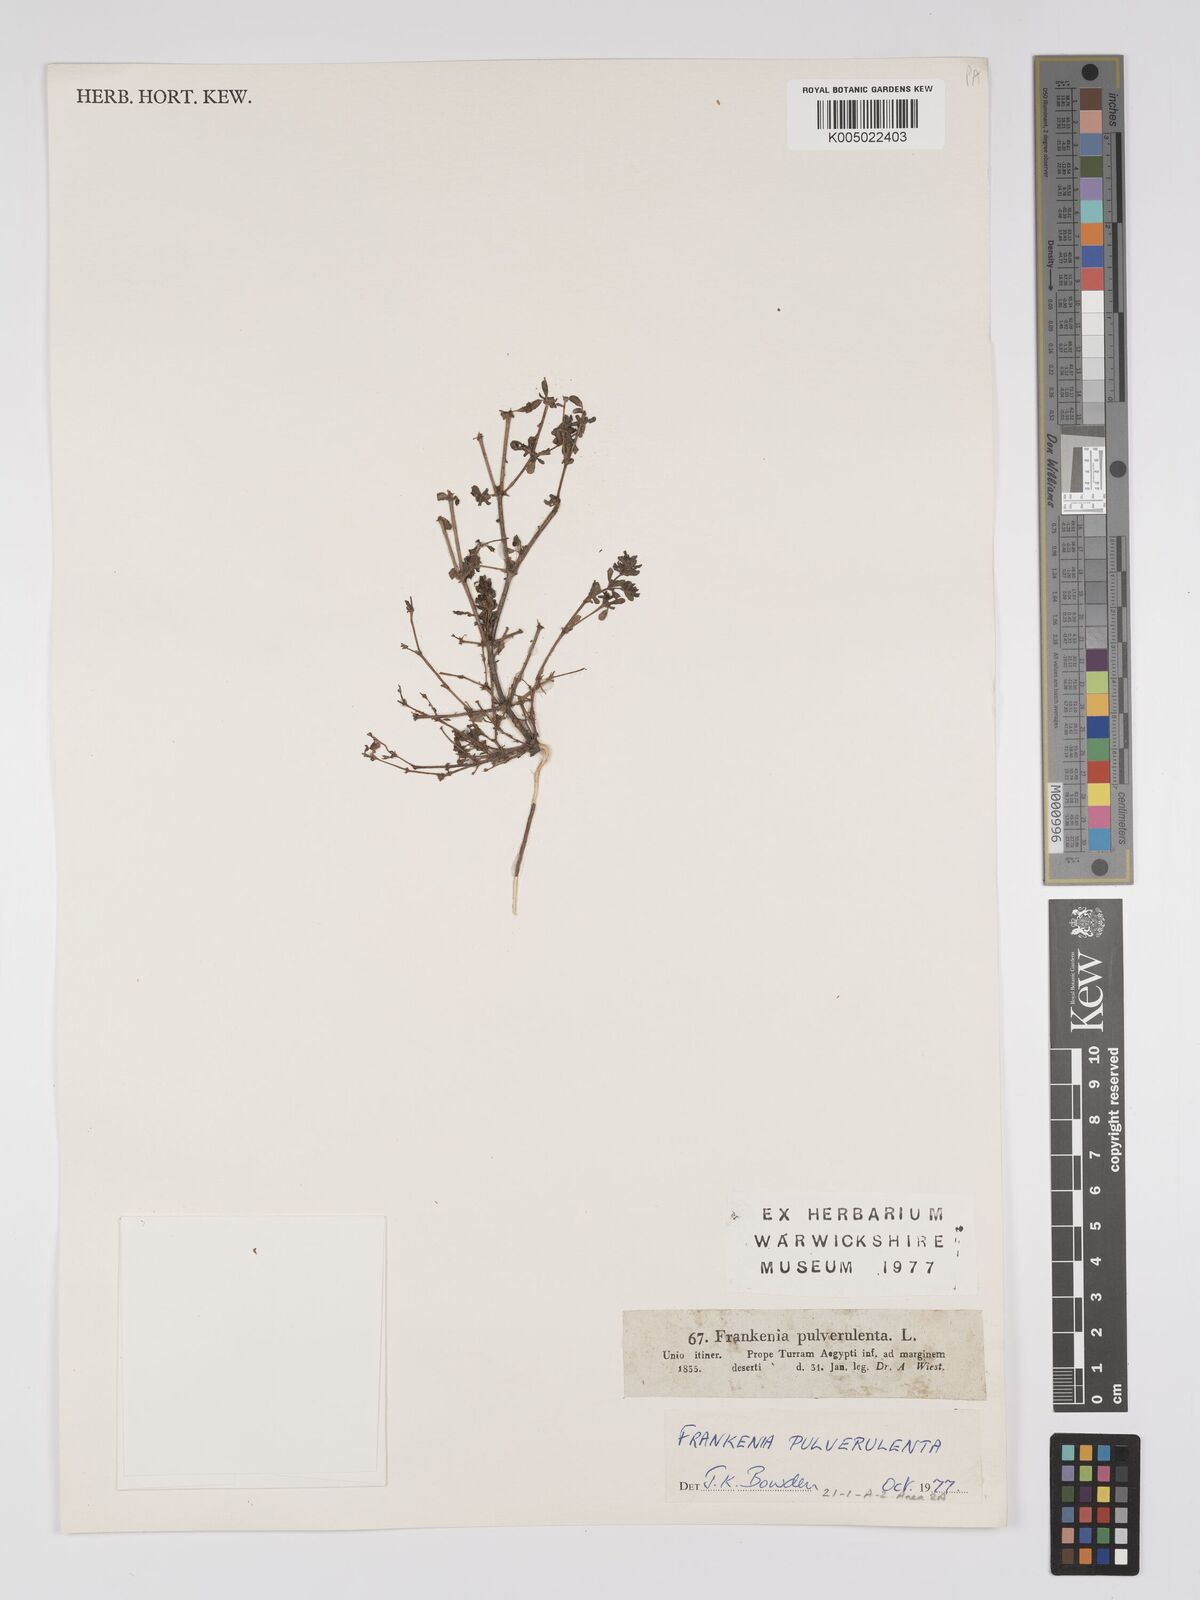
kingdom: Plantae
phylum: Tracheophyta
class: Magnoliopsida
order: Caryophyllales
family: Frankeniaceae
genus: Frankenia
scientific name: Frankenia pulverulenta
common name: European seaheath
